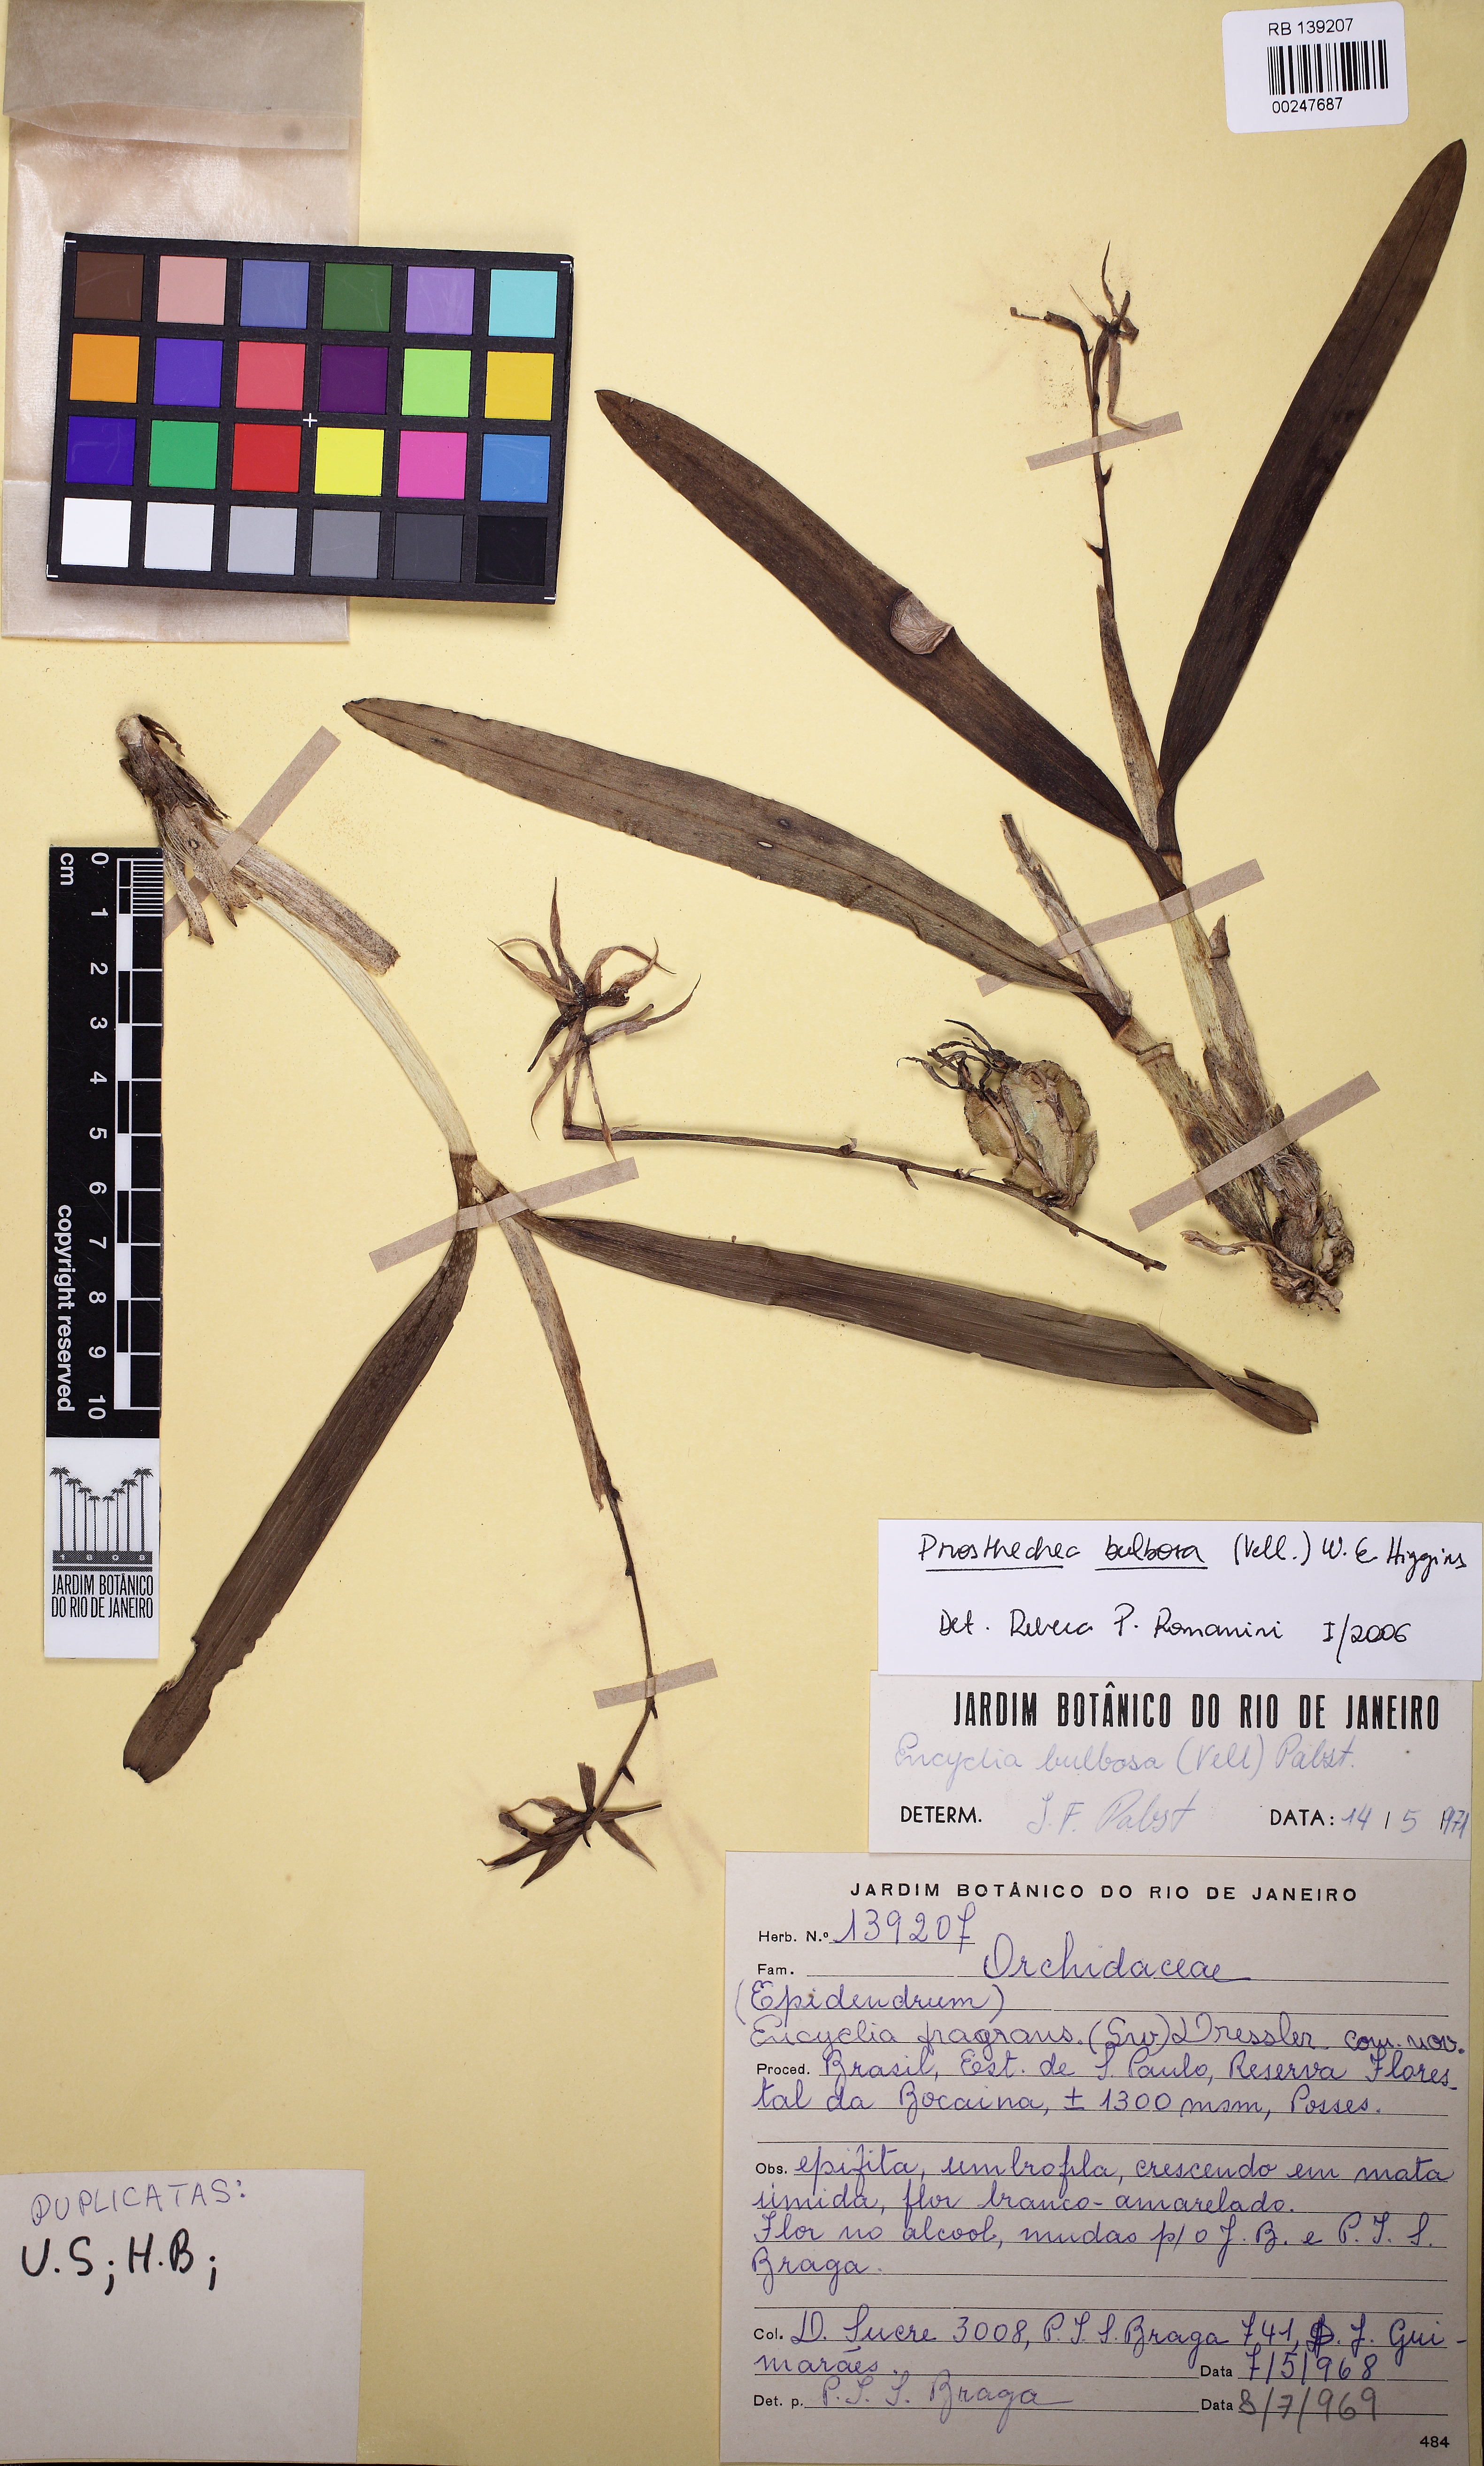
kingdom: Plantae
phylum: Tracheophyta
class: Liliopsida
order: Asparagales
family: Orchidaceae
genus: Prosthechea
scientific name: Prosthechea bulbosa
